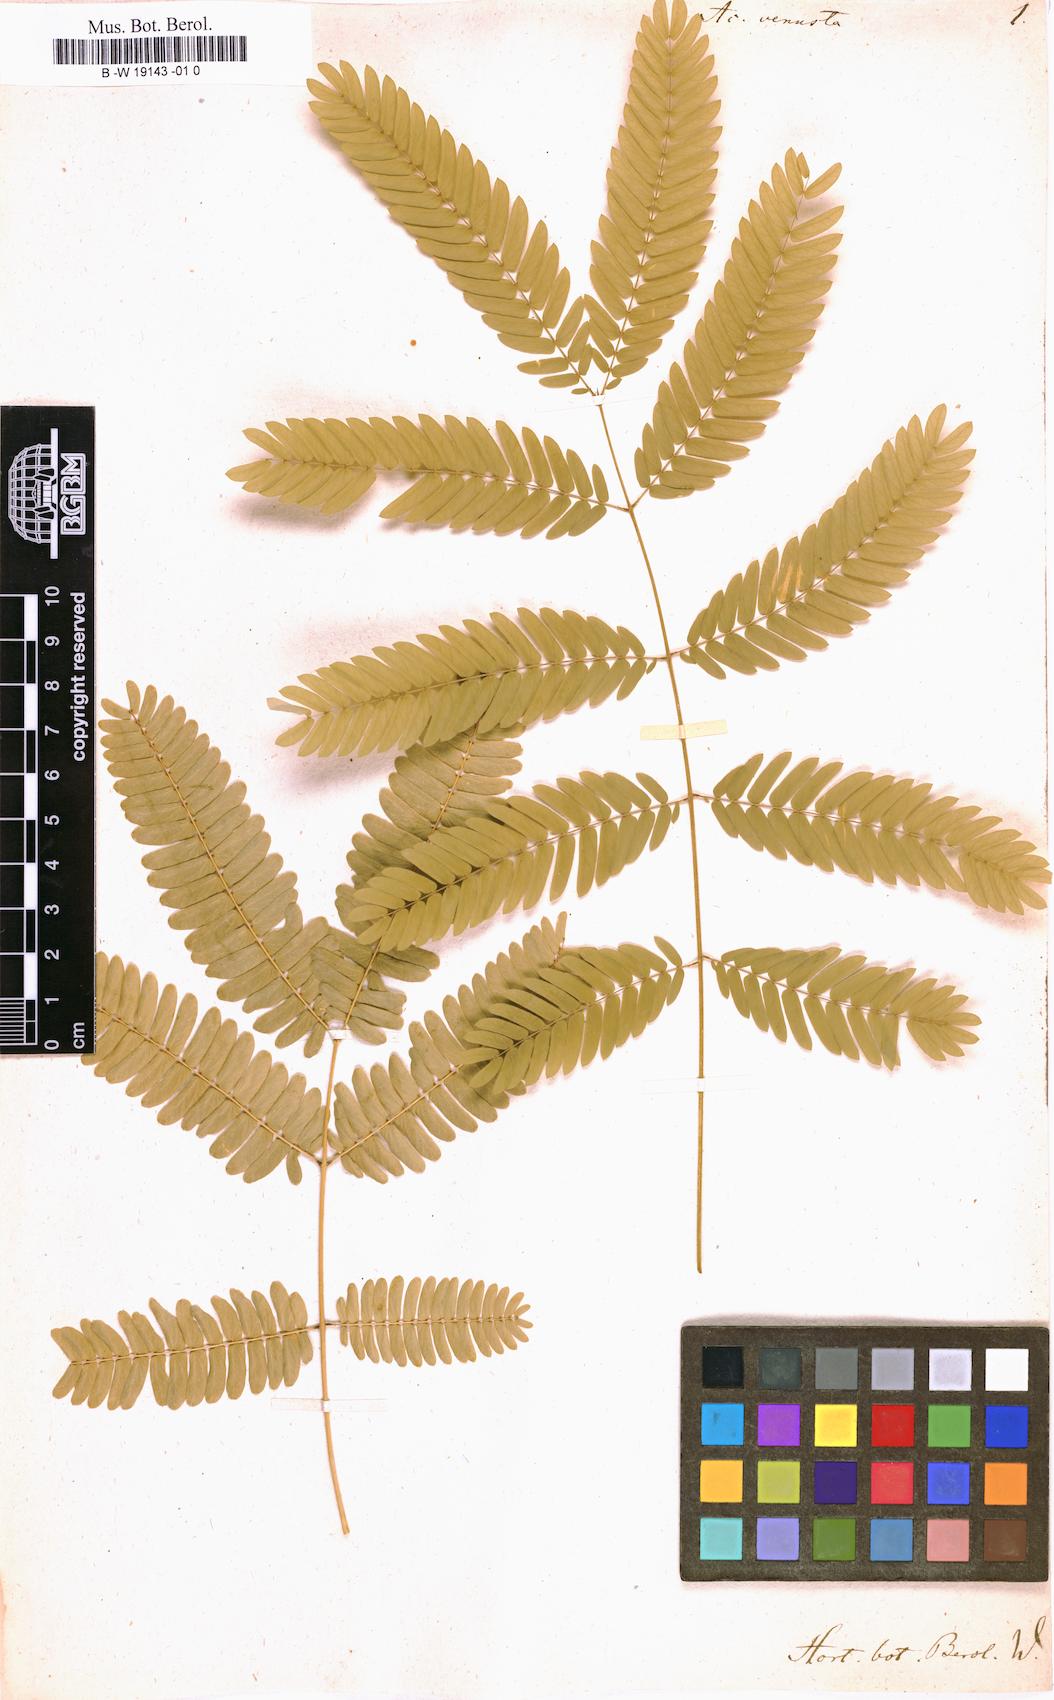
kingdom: Plantae
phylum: Tracheophyta
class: Magnoliopsida
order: Fabales
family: Fabaceae
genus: Acacia
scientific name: Acacia venusta
